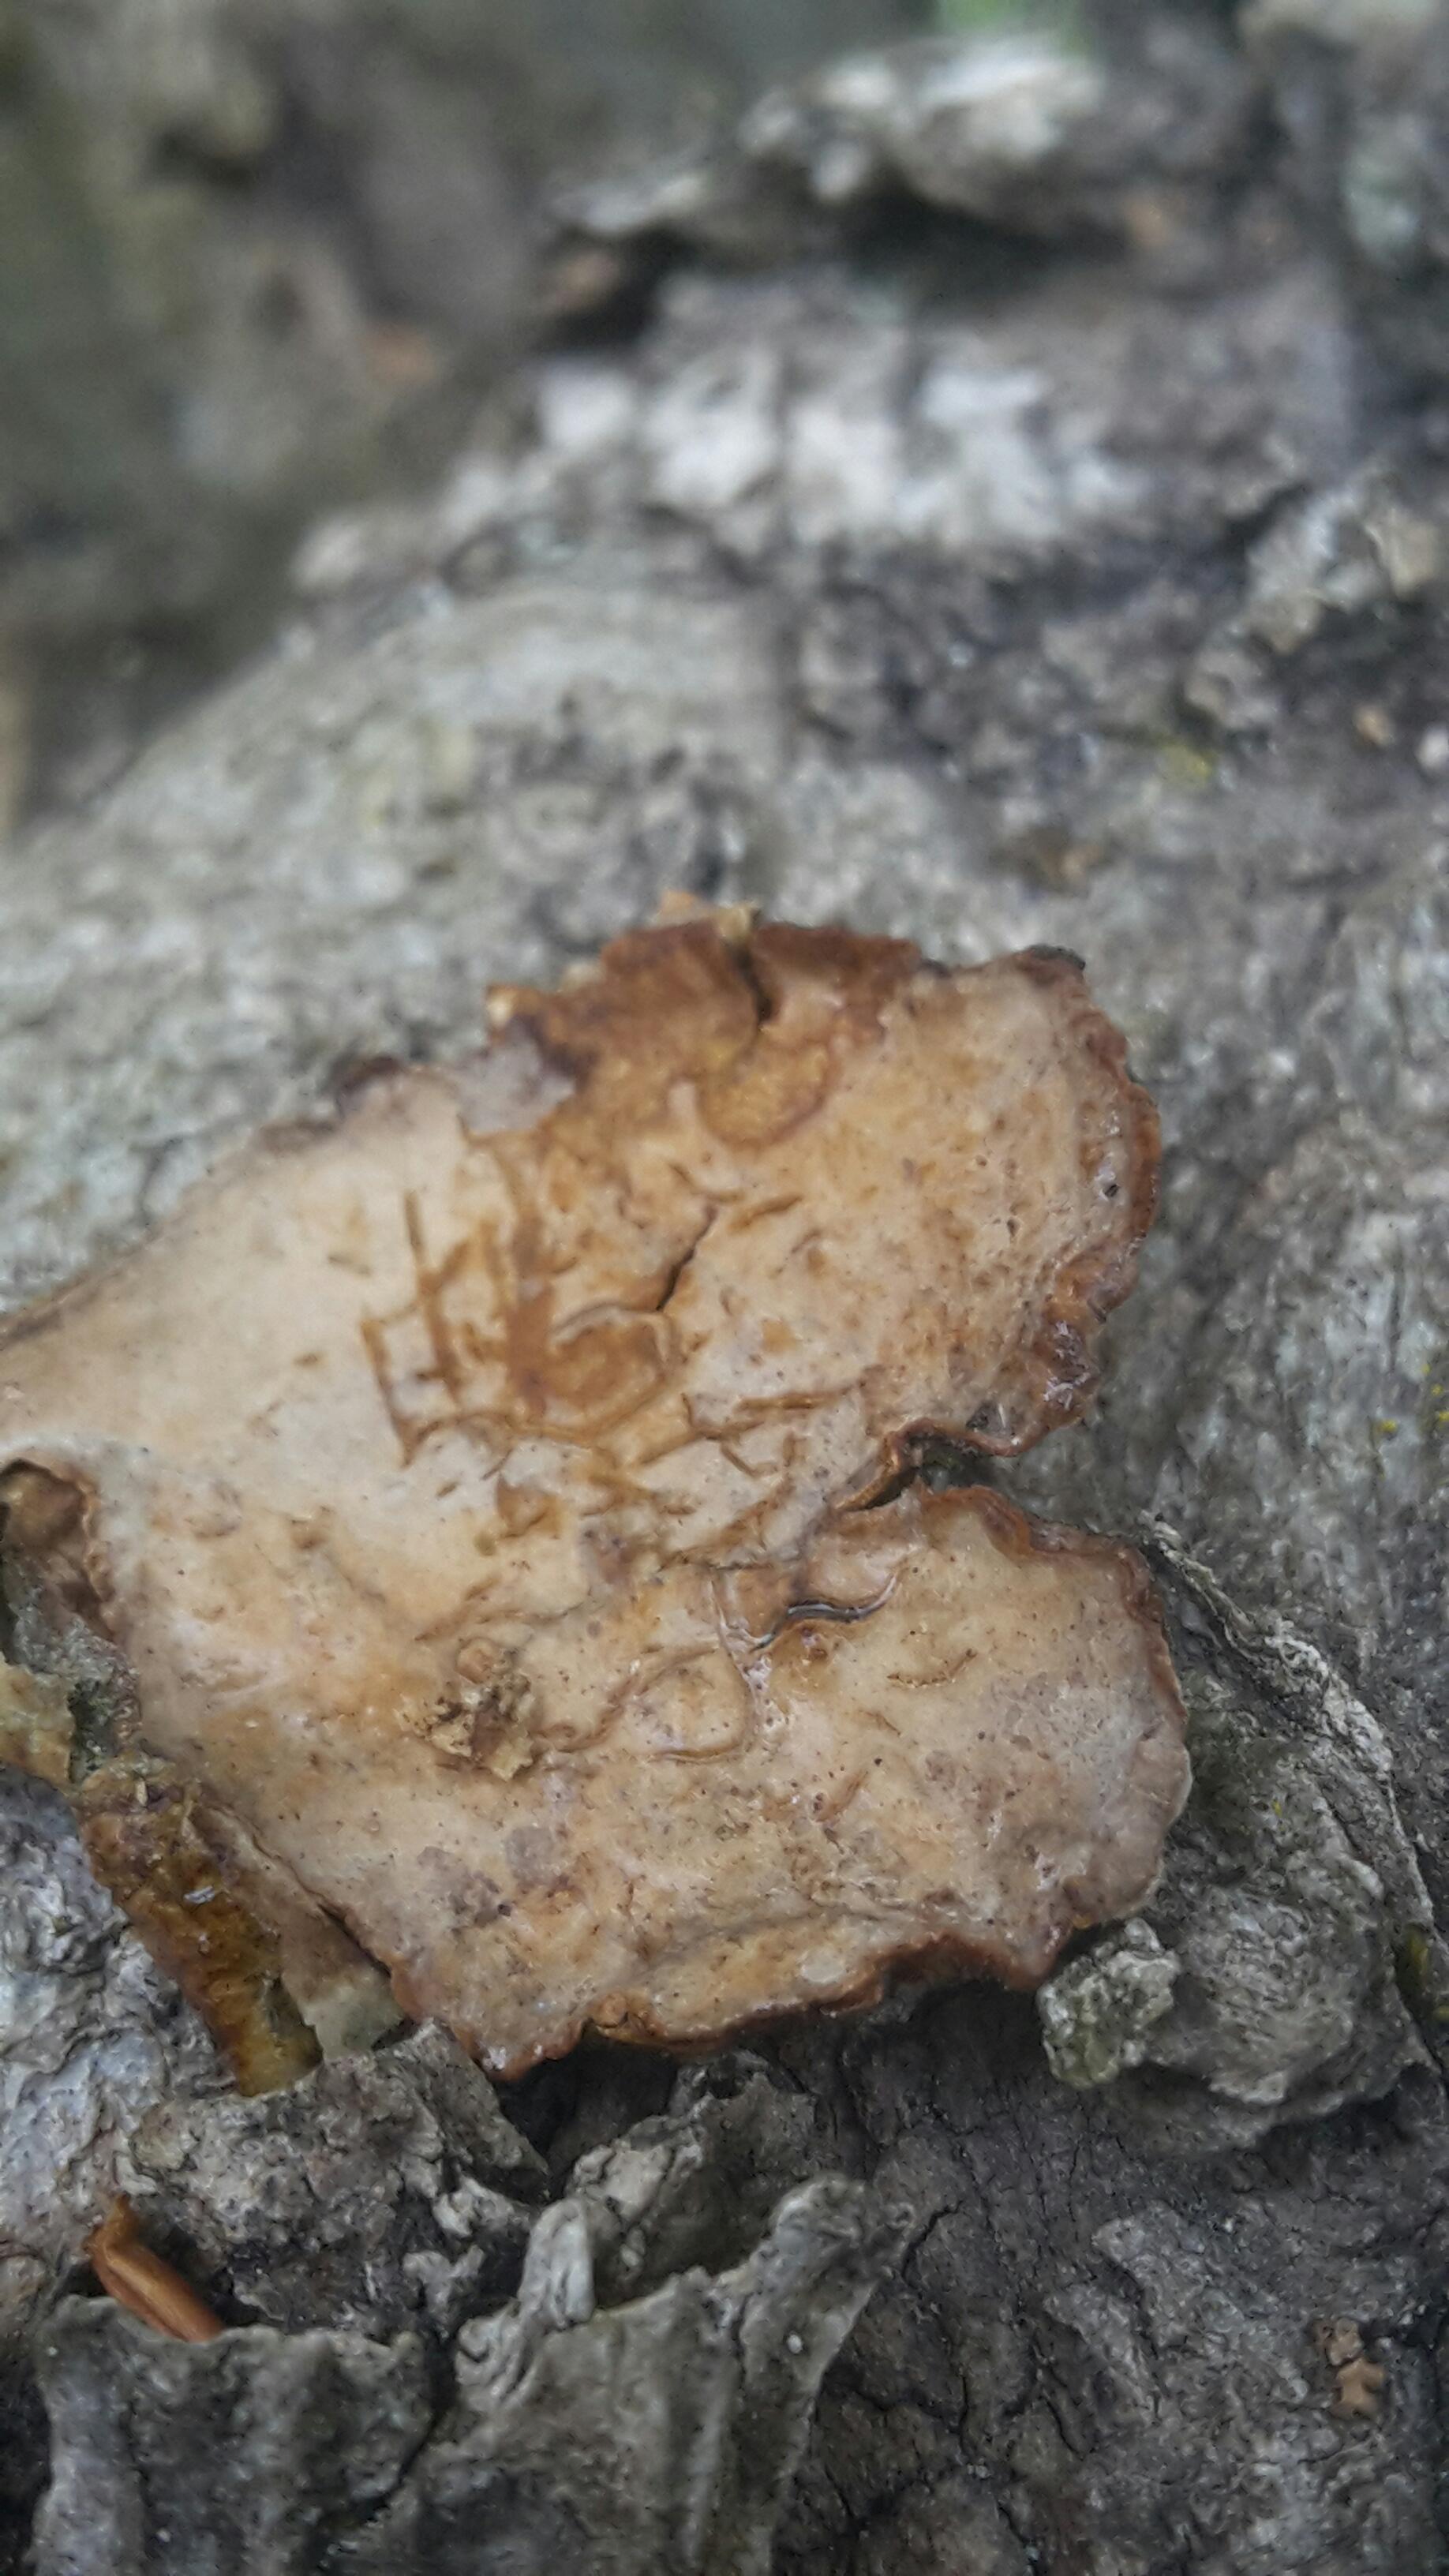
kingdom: Fungi
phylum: Basidiomycota
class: Agaricomycetes
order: Russulales
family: Stereaceae
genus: Stereum
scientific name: Stereum rugosum
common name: rynket lædersvamp
